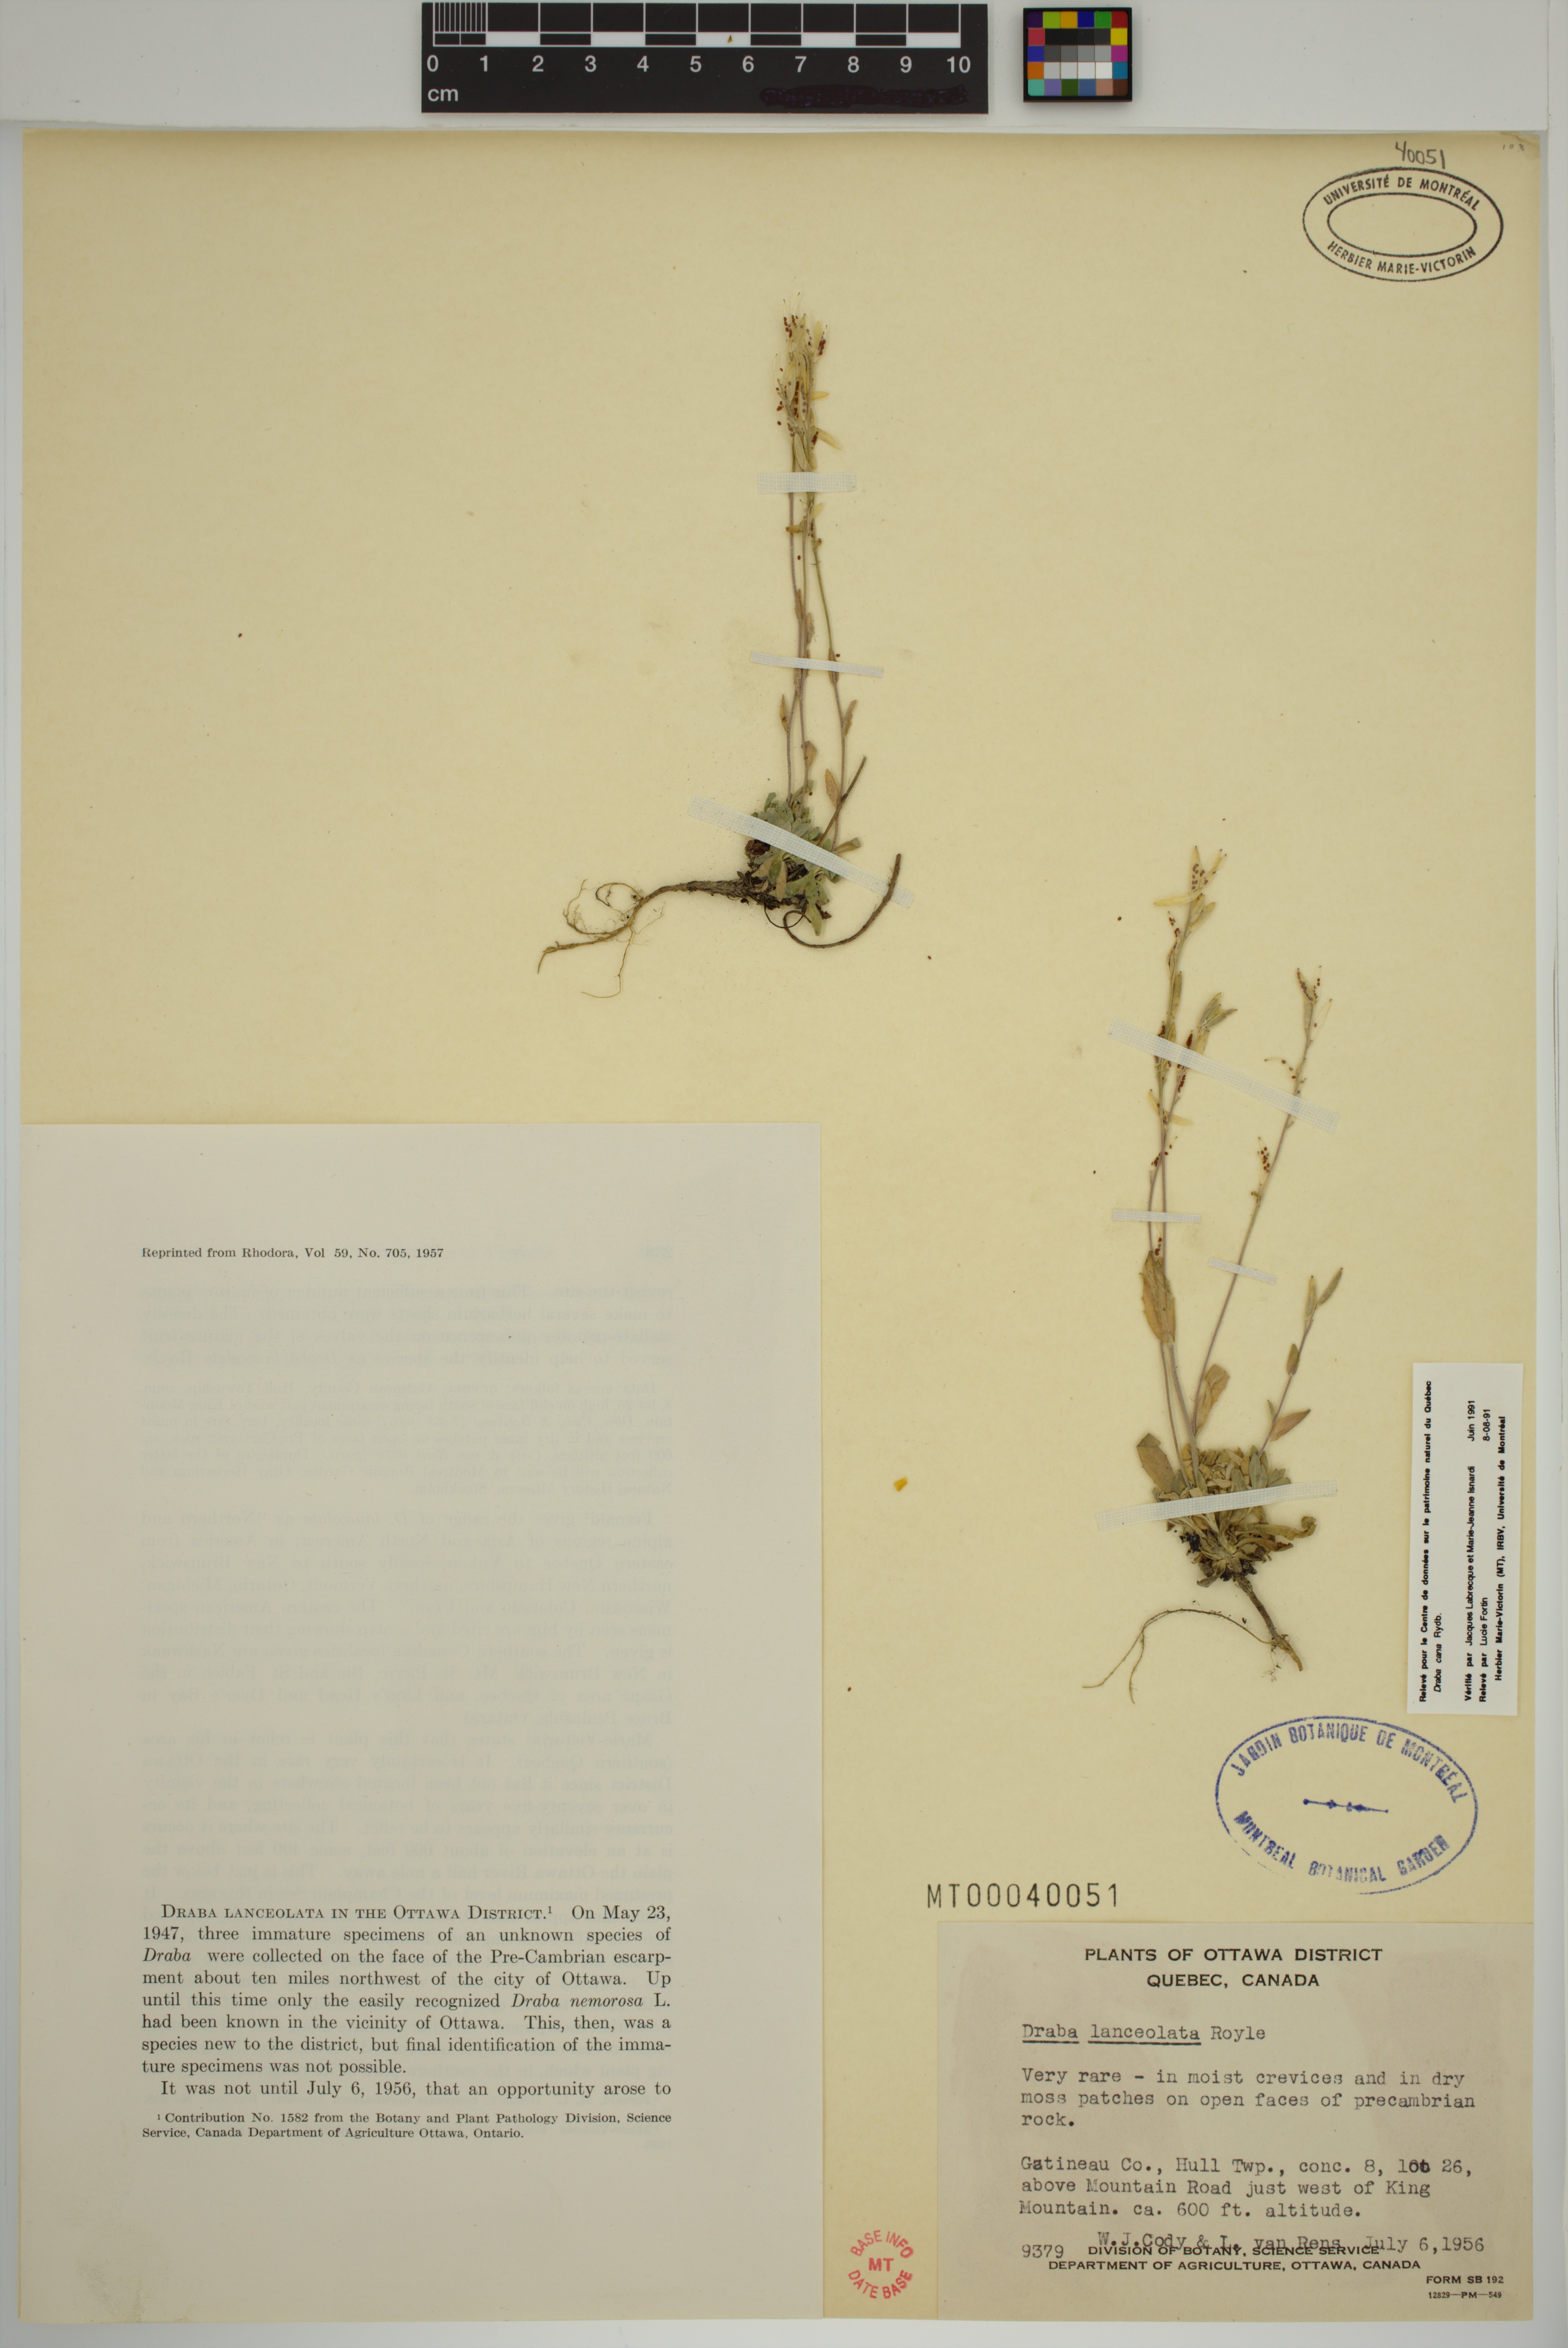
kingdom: Plantae
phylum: Tracheophyta
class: Magnoliopsida
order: Brassicales
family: Brassicaceae
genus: Draba
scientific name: Draba cana
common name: Hoary draba
